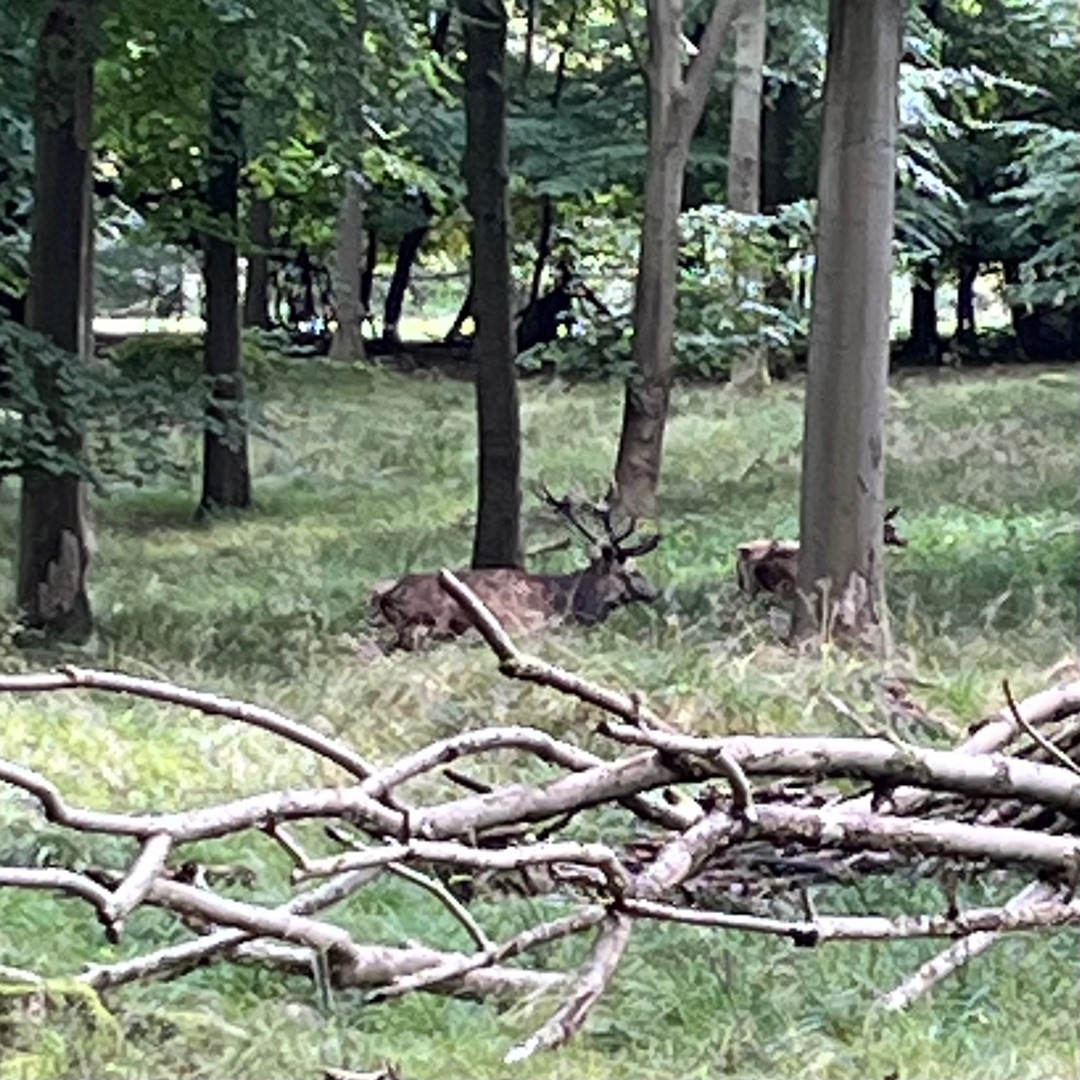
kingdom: Animalia
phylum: Chordata
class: Mammalia
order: Artiodactyla
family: Cervidae
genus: Cervus
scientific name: Cervus elaphus
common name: Krondyr
